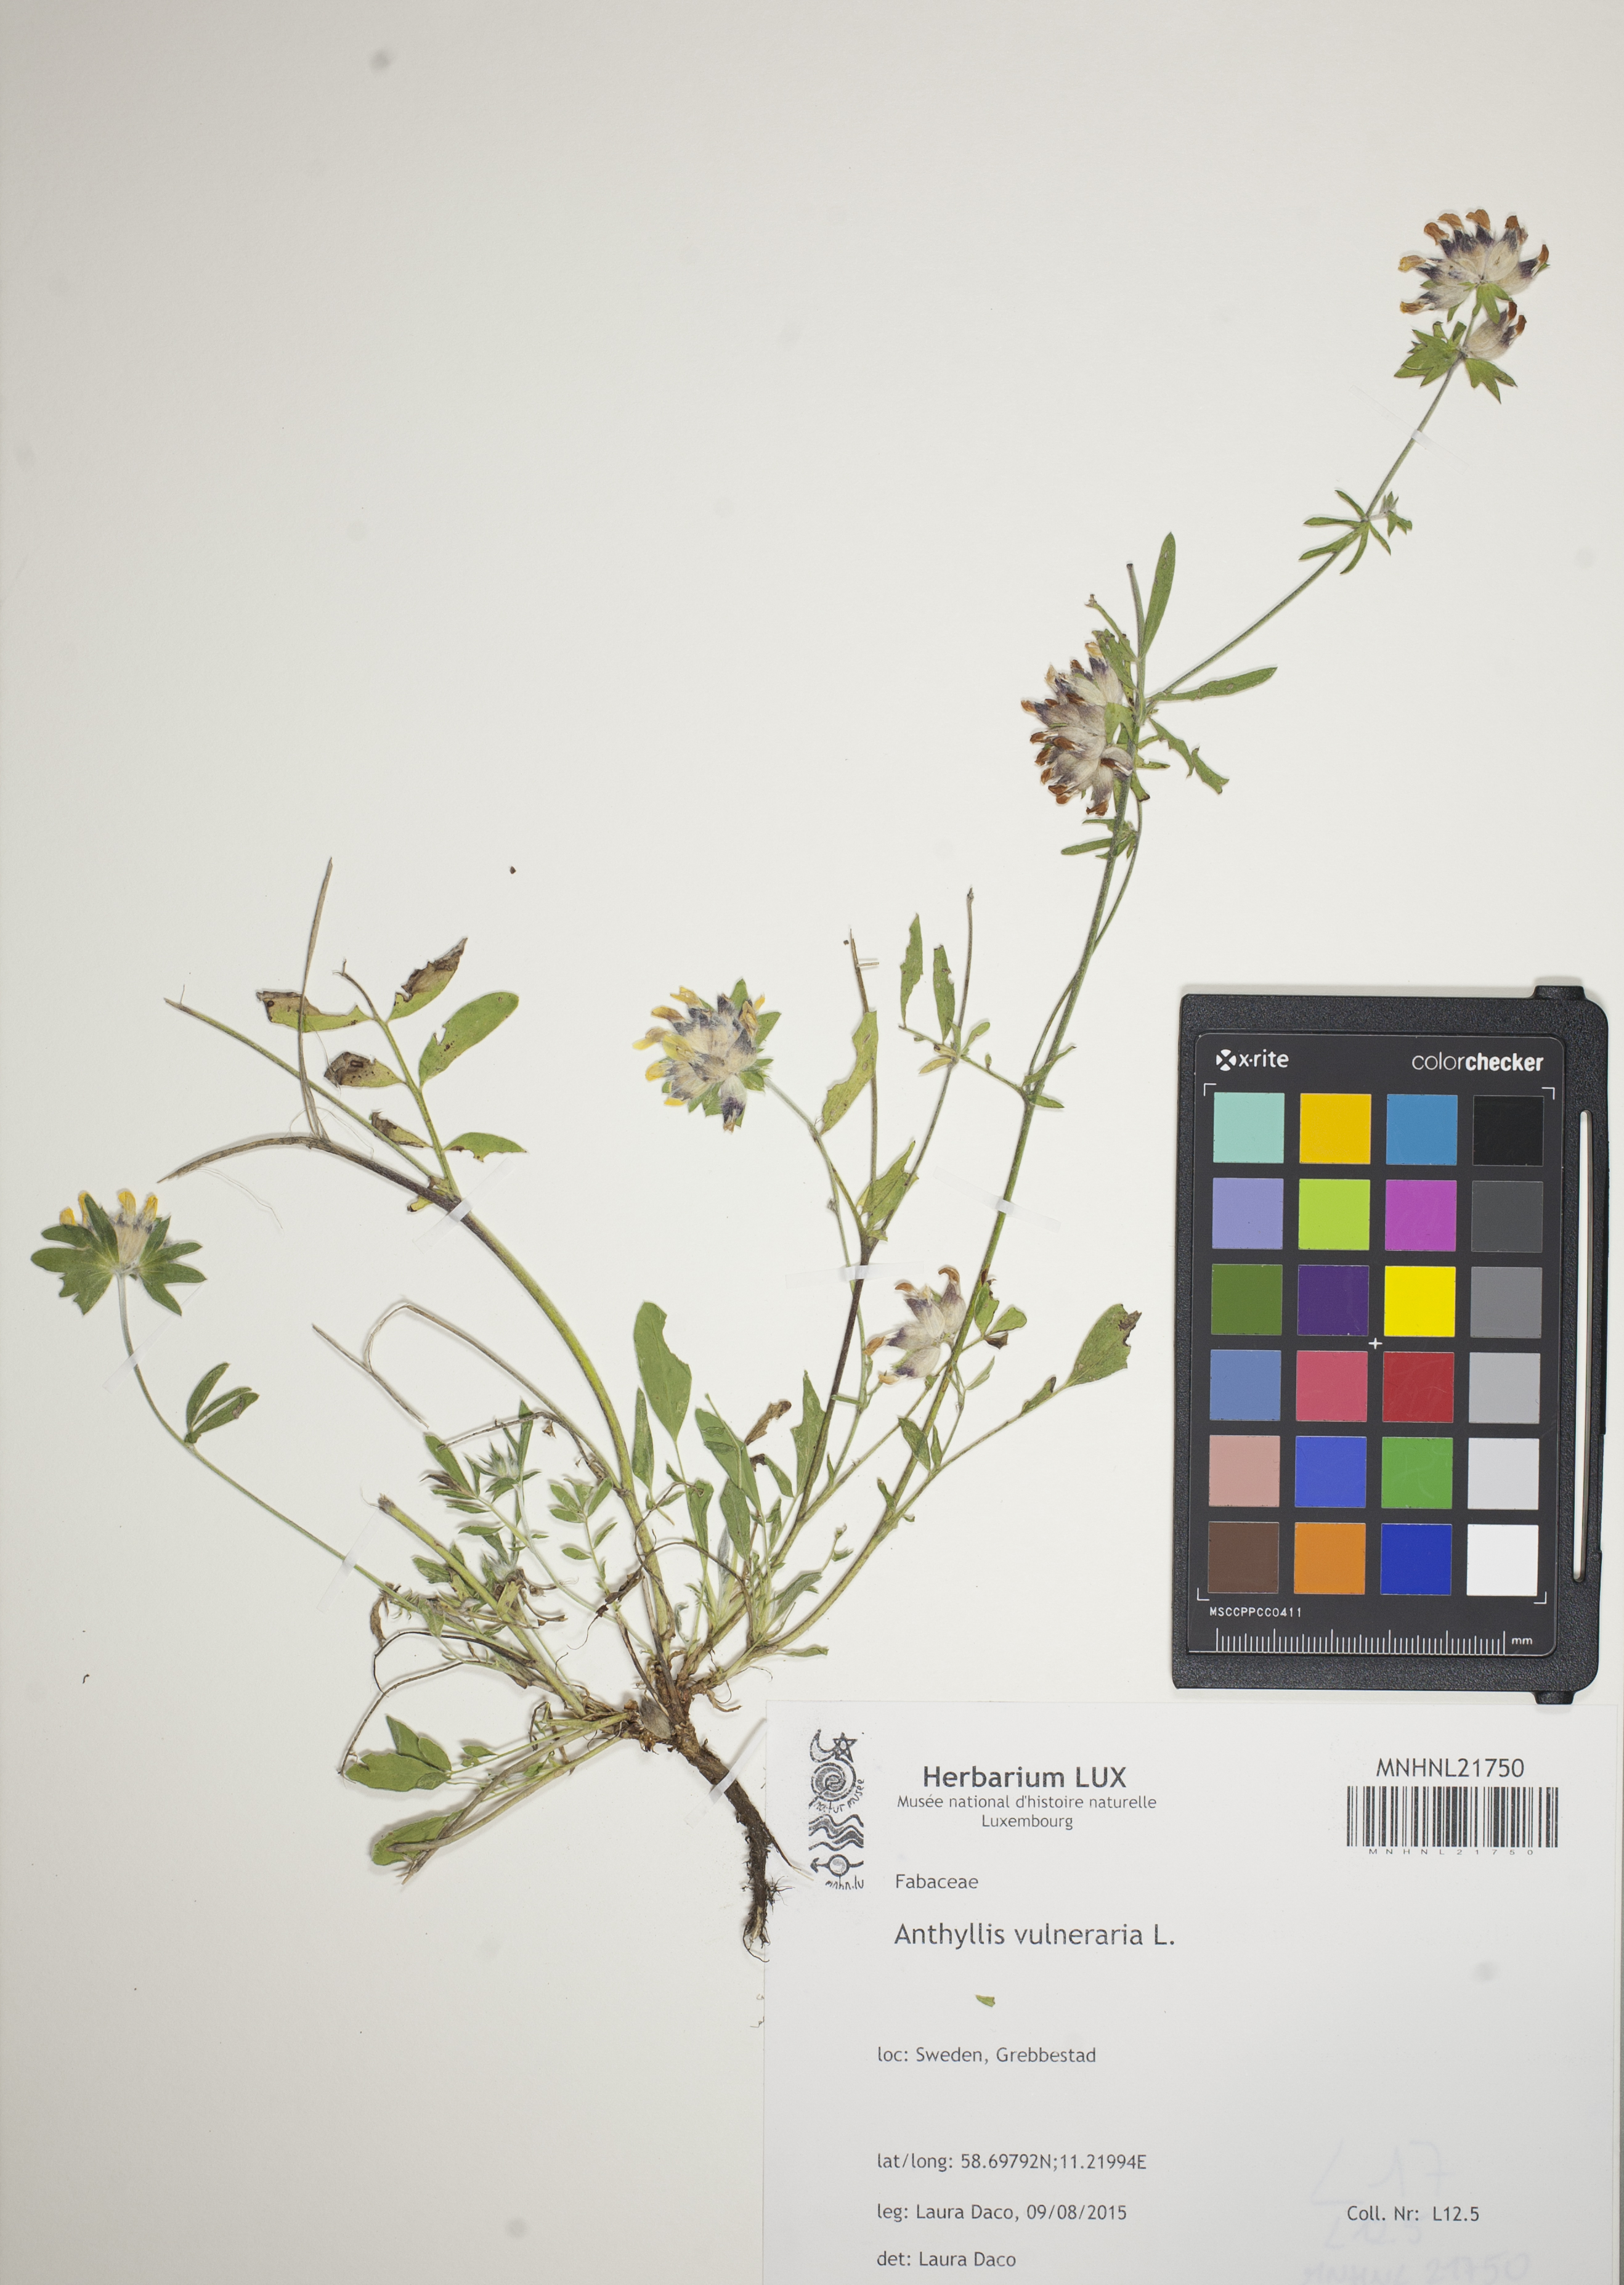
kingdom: Plantae
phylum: Tracheophyta
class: Magnoliopsida
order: Fabales
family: Fabaceae
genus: Anthyllis
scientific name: Anthyllis vulneraria
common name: Kidney vetch
